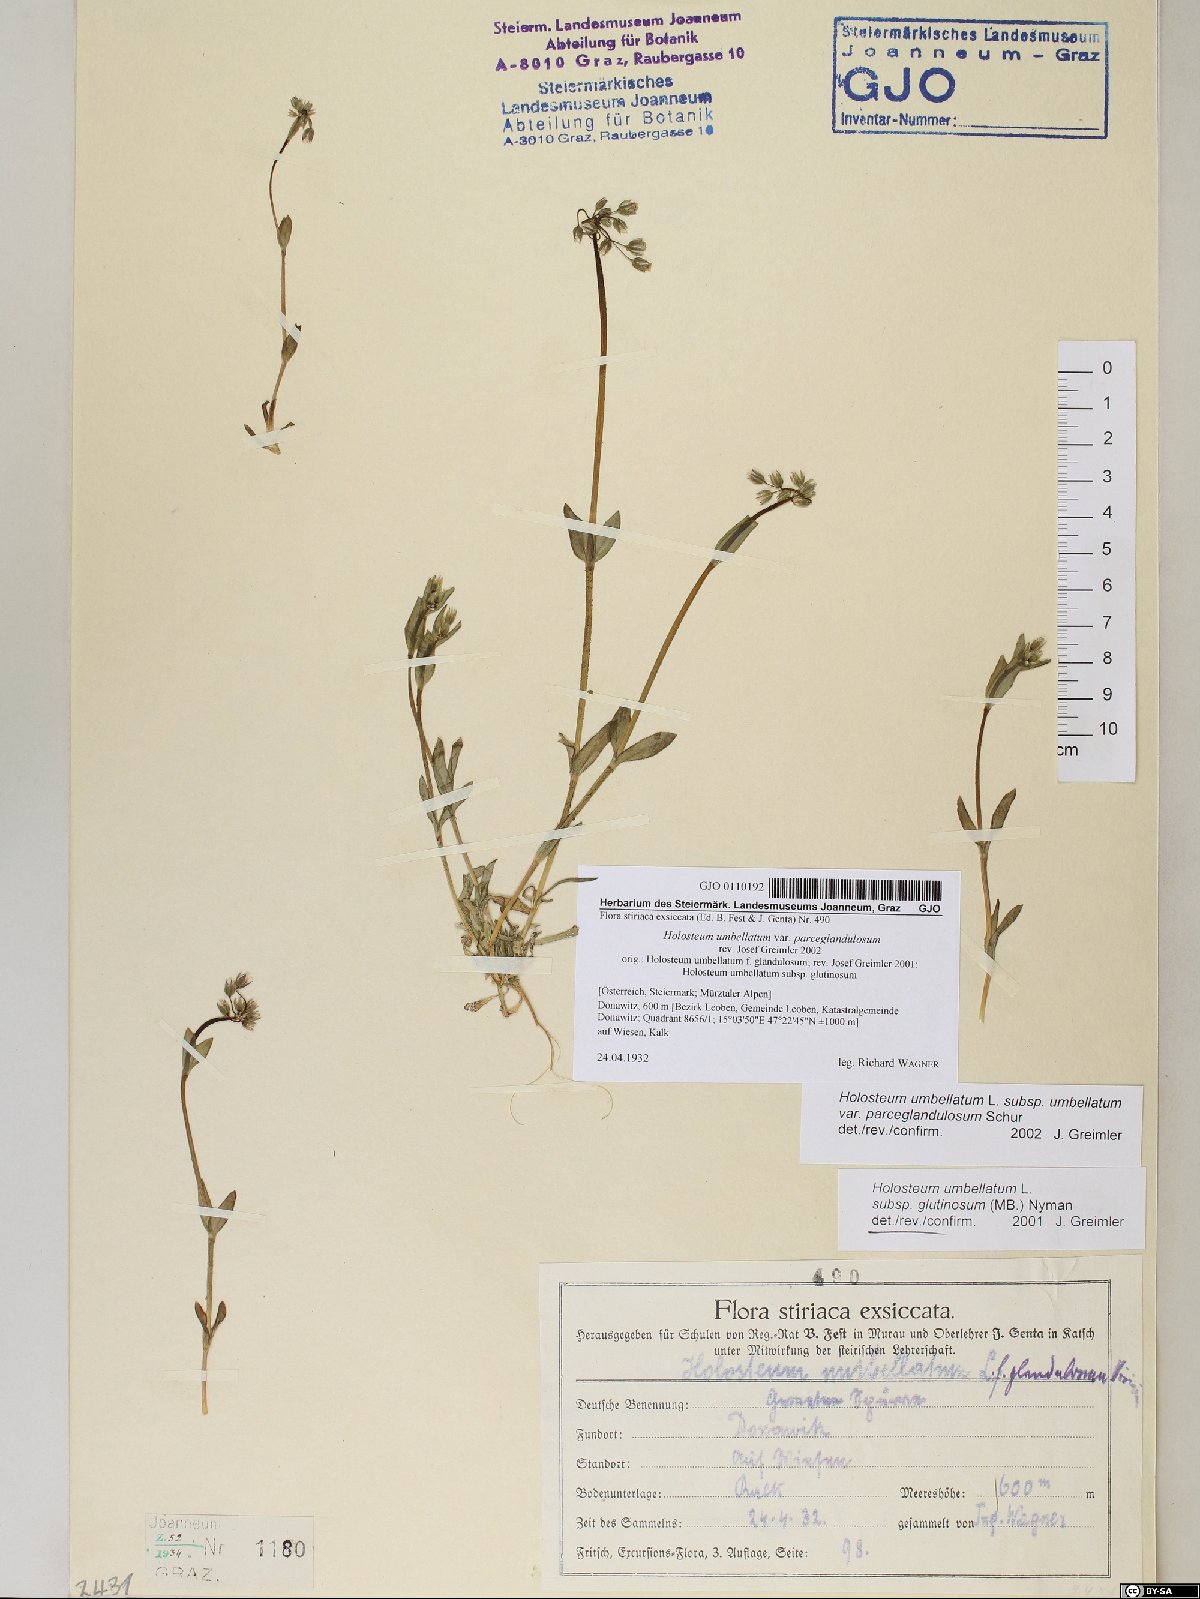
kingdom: Plantae
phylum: Tracheophyta
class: Magnoliopsida
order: Caryophyllales
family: Caryophyllaceae
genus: Holosteum
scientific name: Holosteum umbellatum
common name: Jagged chickweed
